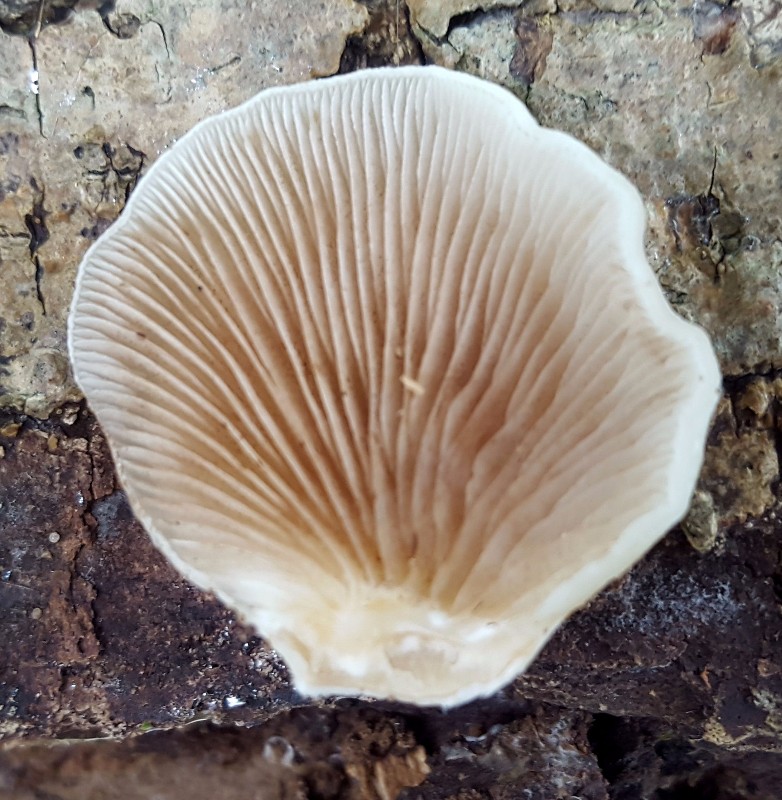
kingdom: Fungi
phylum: Basidiomycota
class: Agaricomycetes
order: Agaricales
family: Crepidotaceae
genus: Crepidotus
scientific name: Crepidotus mollis
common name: blød muslingesvamp
